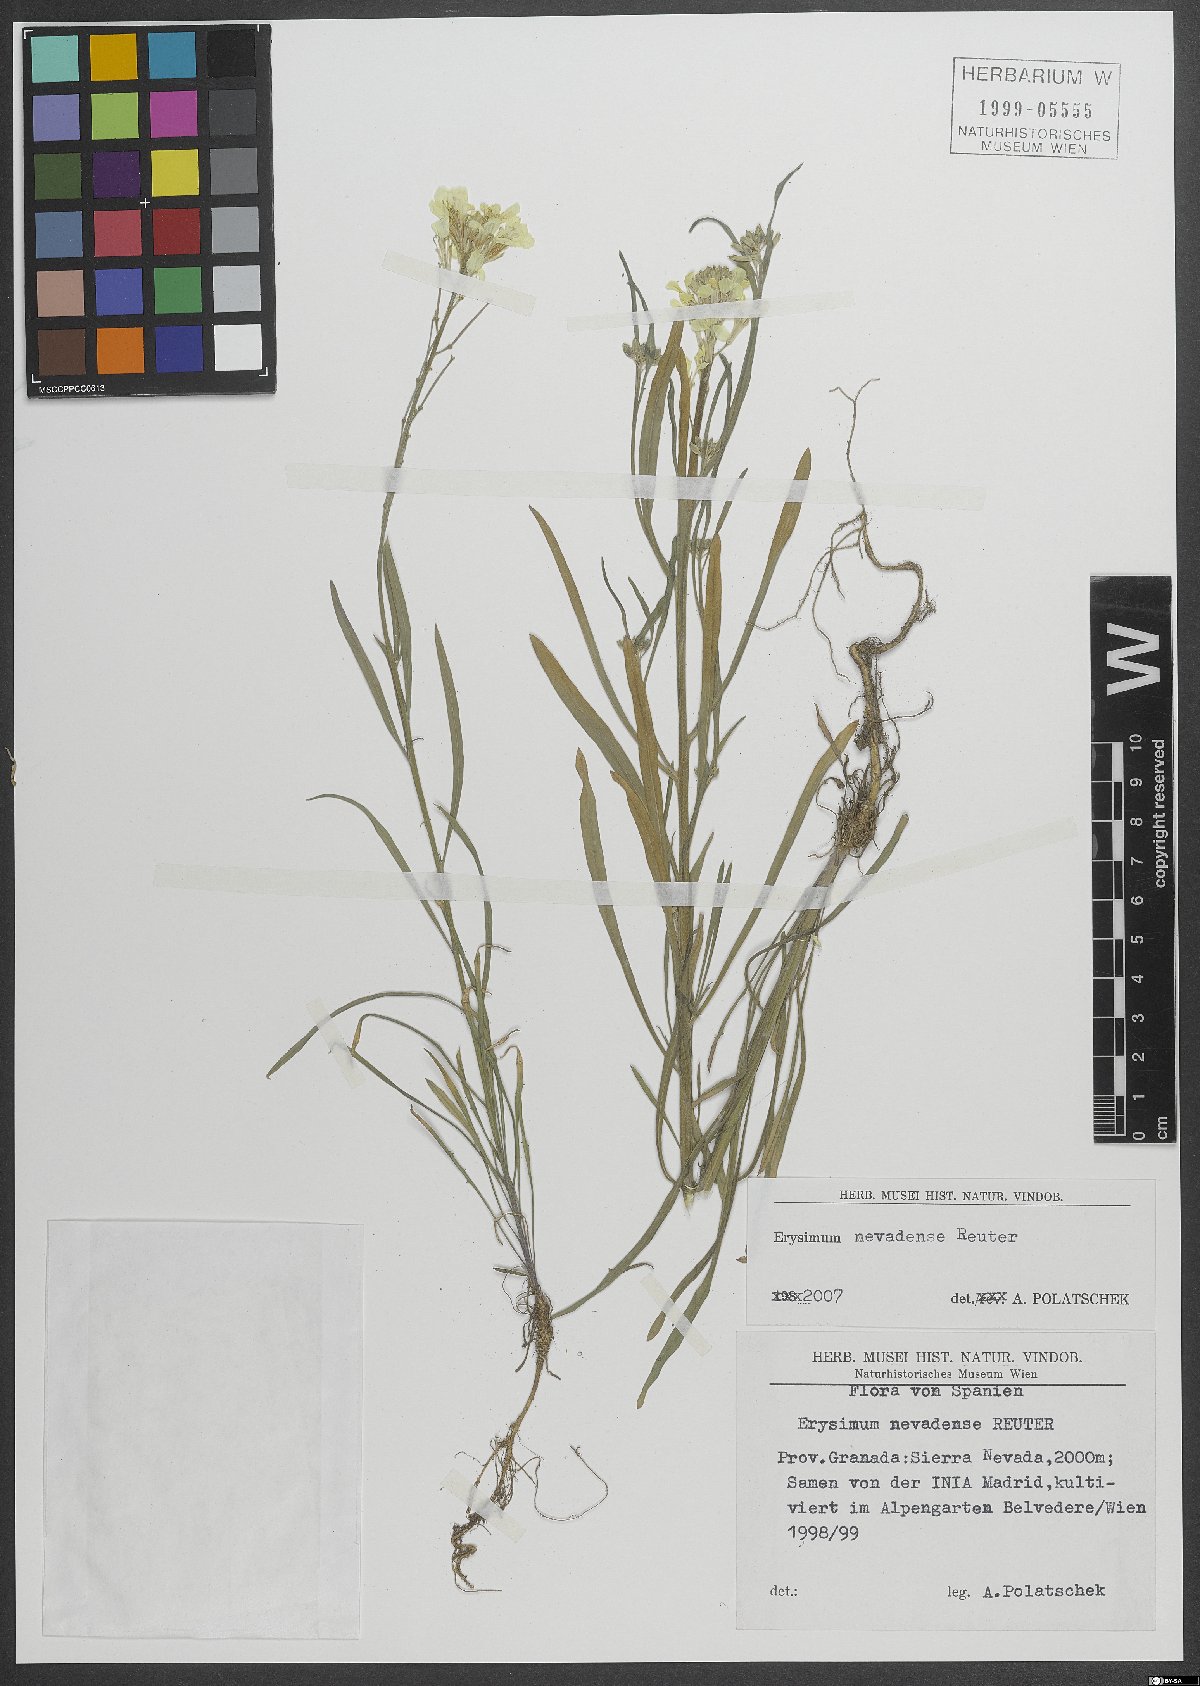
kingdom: Plantae
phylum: Tracheophyta
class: Magnoliopsida
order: Brassicales
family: Brassicaceae
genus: Erysimum
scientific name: Erysimum nevadense
